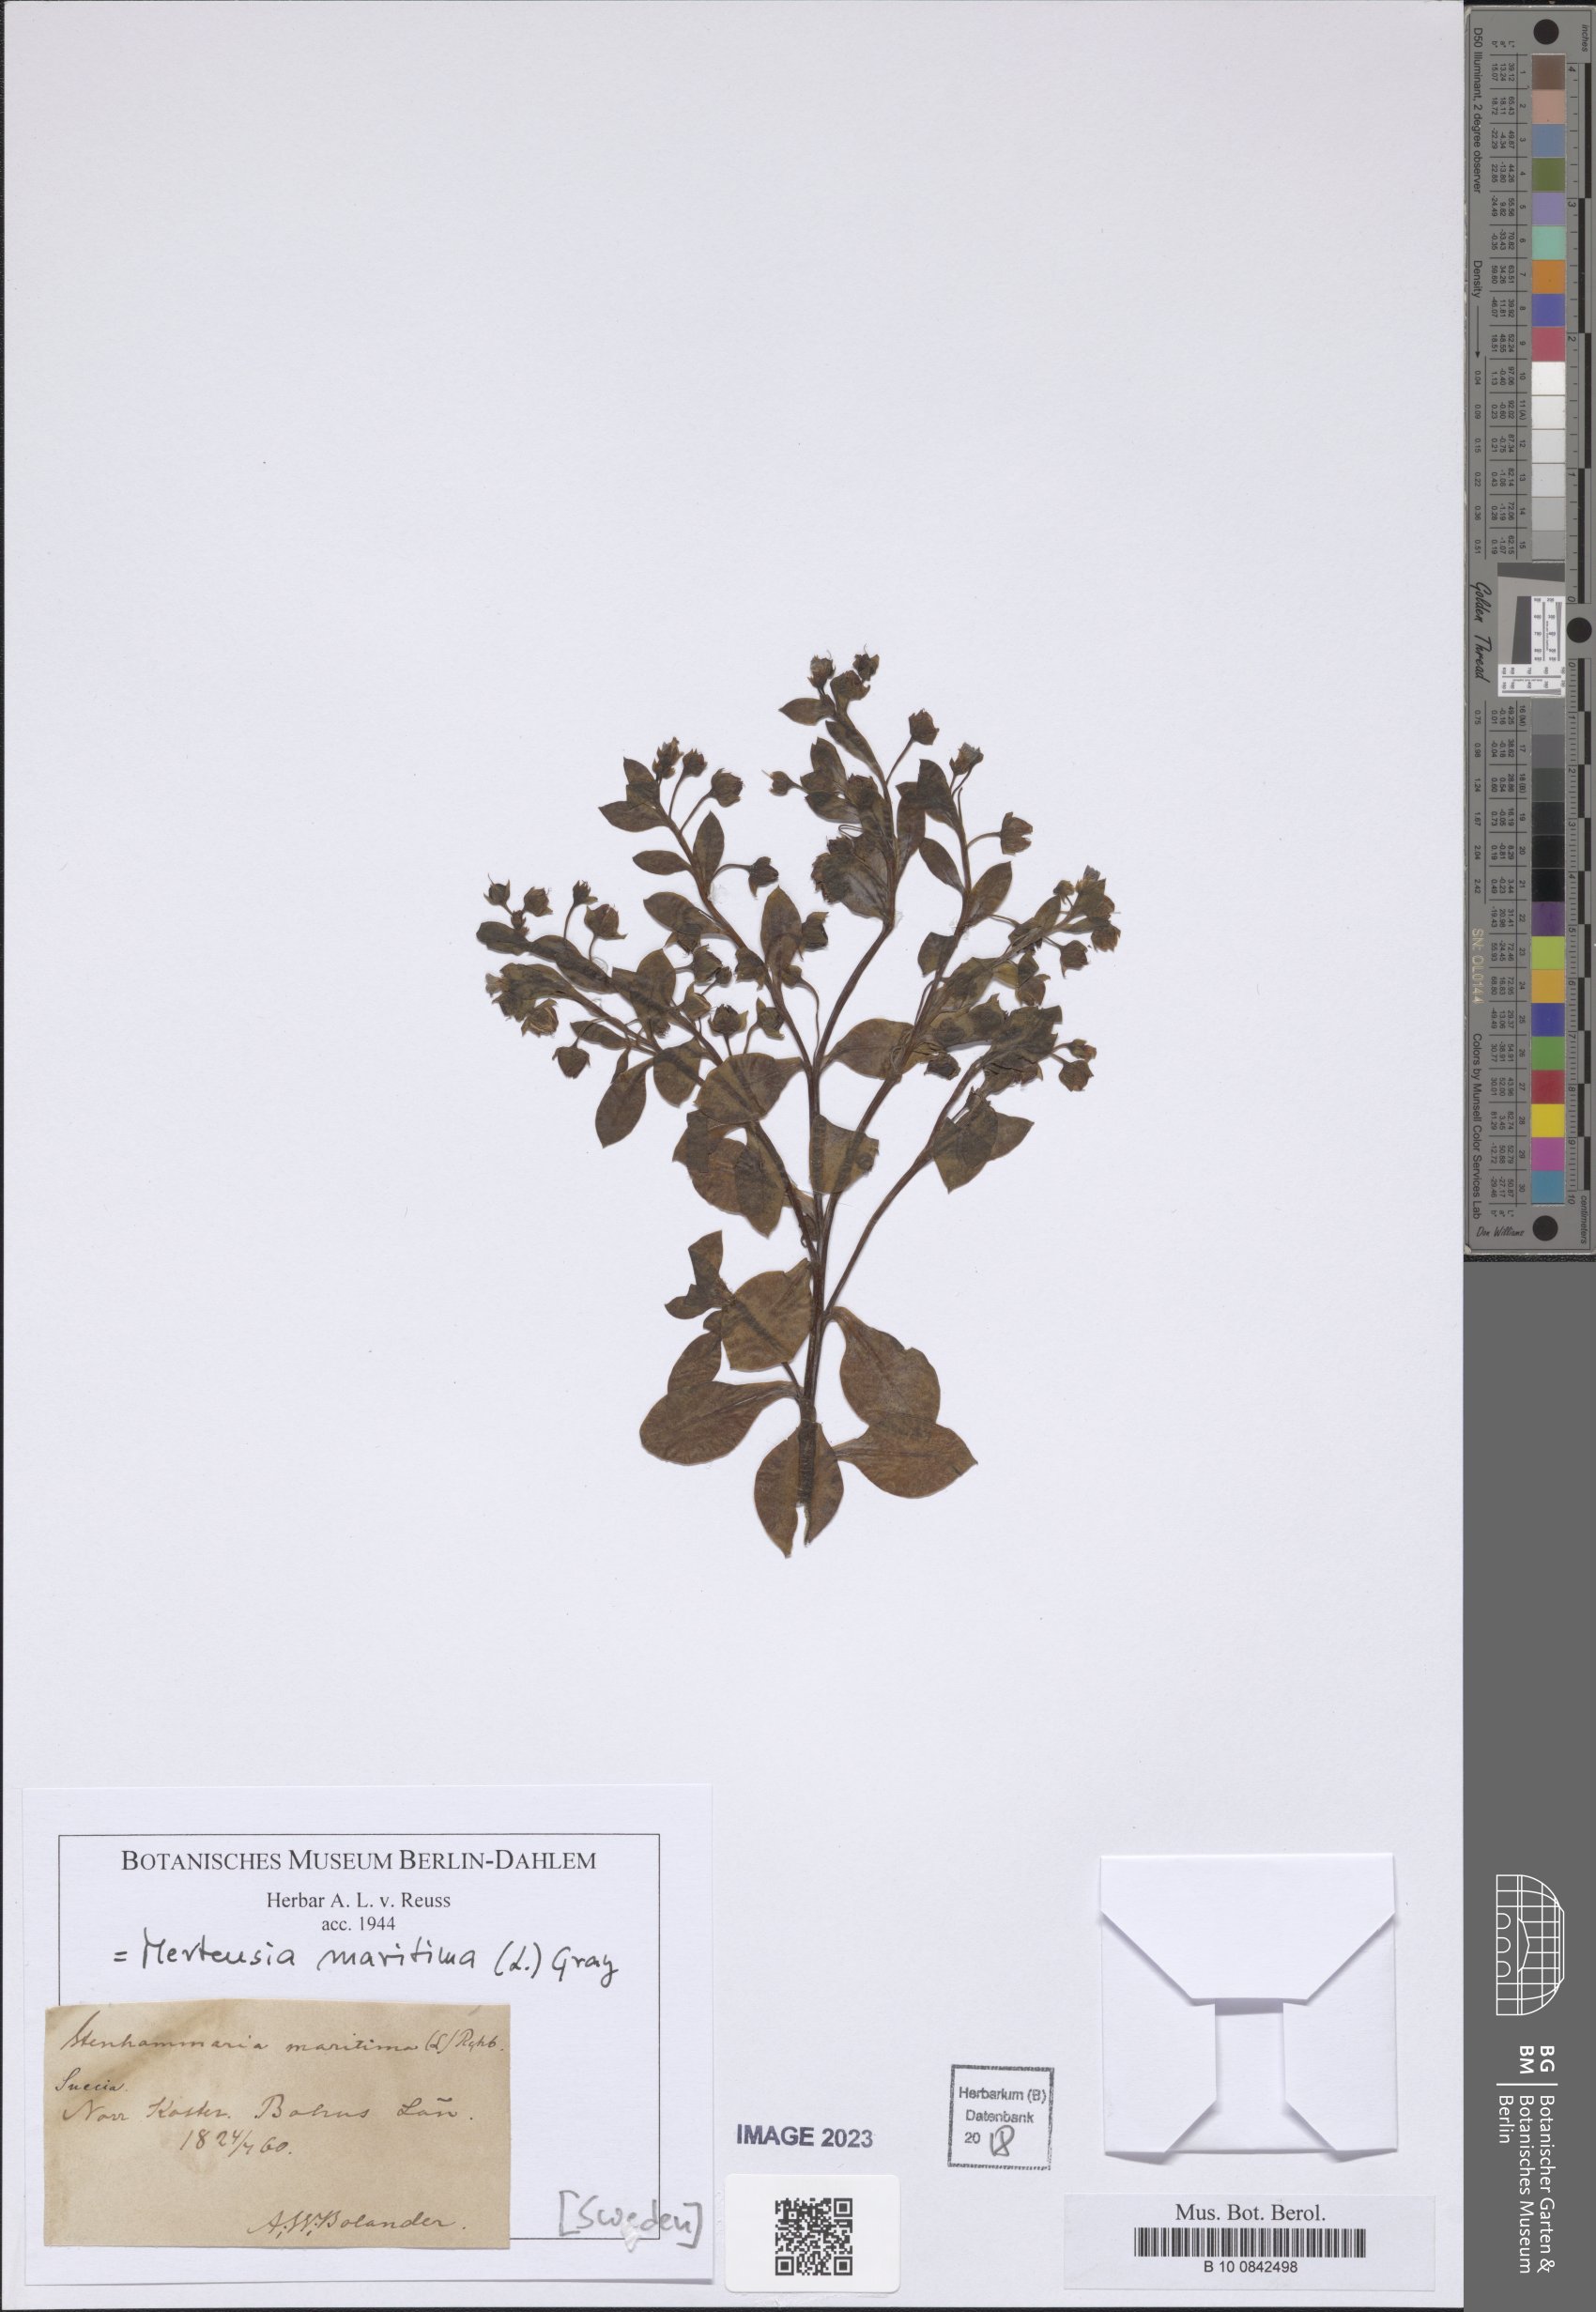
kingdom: Plantae
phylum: Tracheophyta
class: Magnoliopsida
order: Boraginales
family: Boraginaceae
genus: Mertensia
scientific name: Mertensia maritima
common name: Oysterplant
